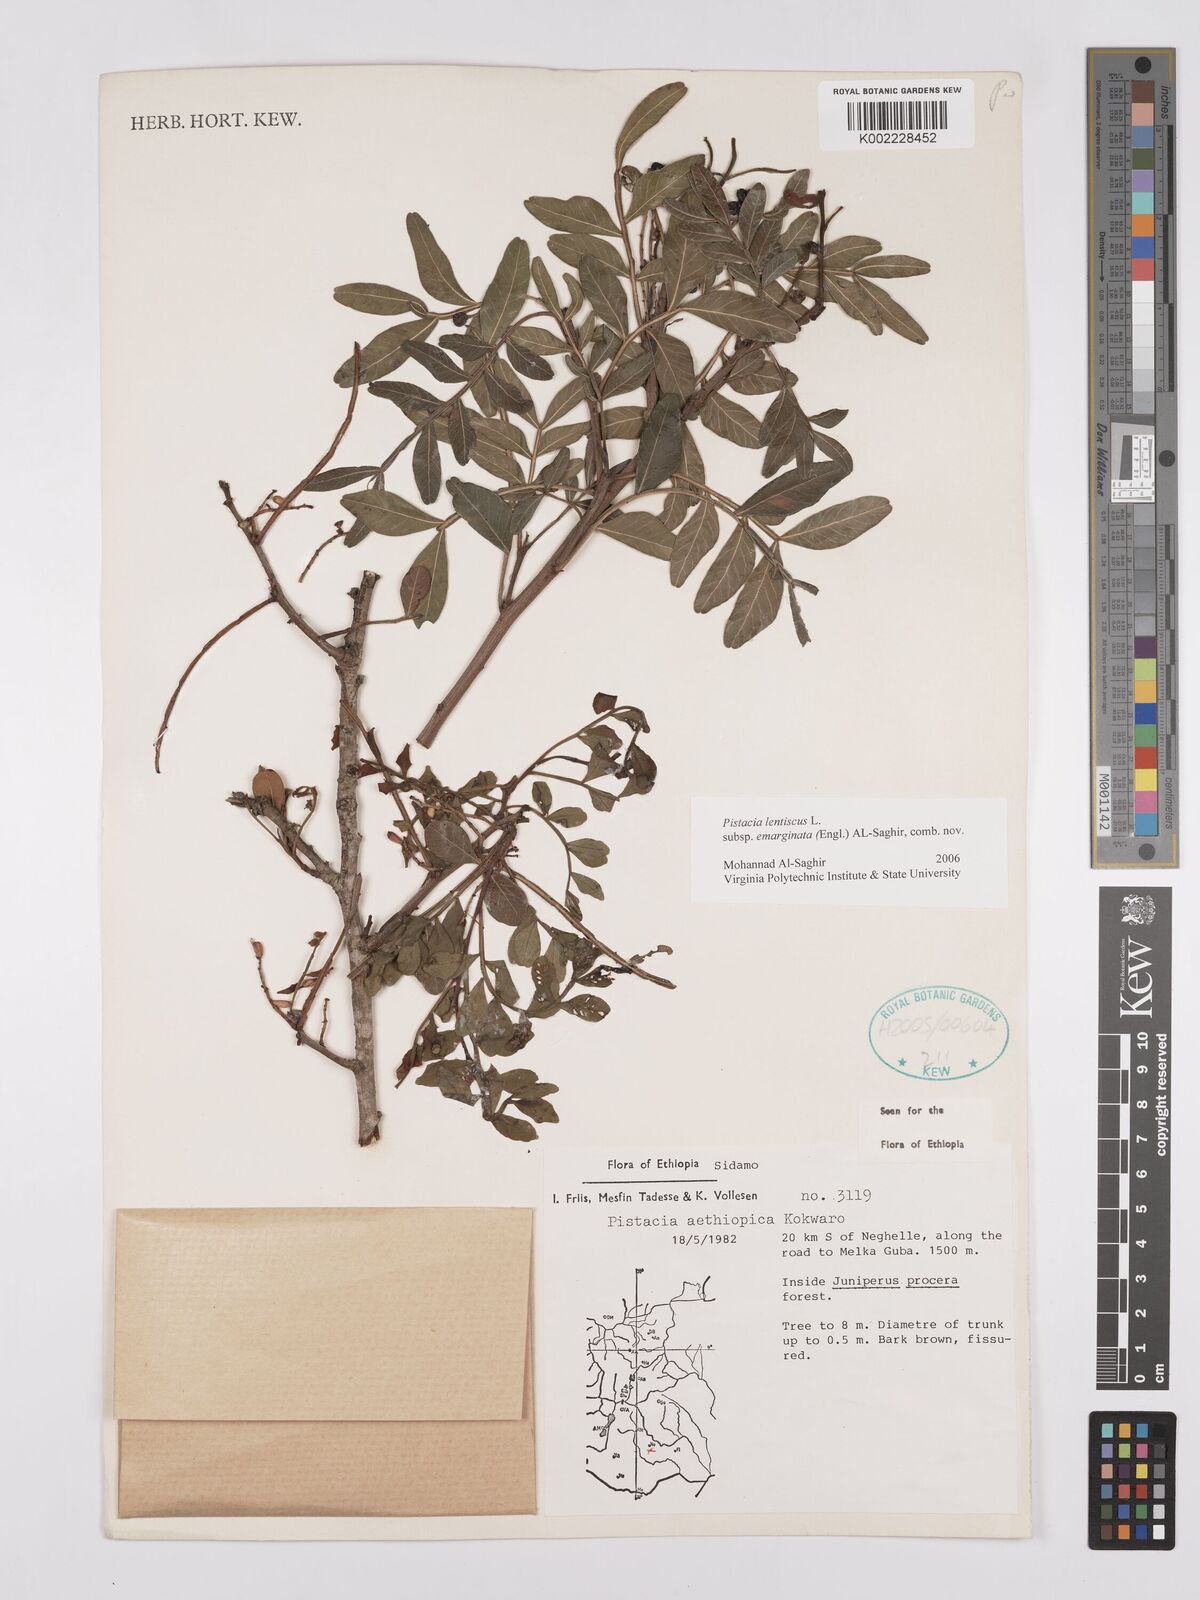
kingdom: Plantae
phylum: Tracheophyta
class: Magnoliopsida
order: Sapindales
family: Anacardiaceae
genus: Pistacia
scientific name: Pistacia lentiscus
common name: Lentisk
